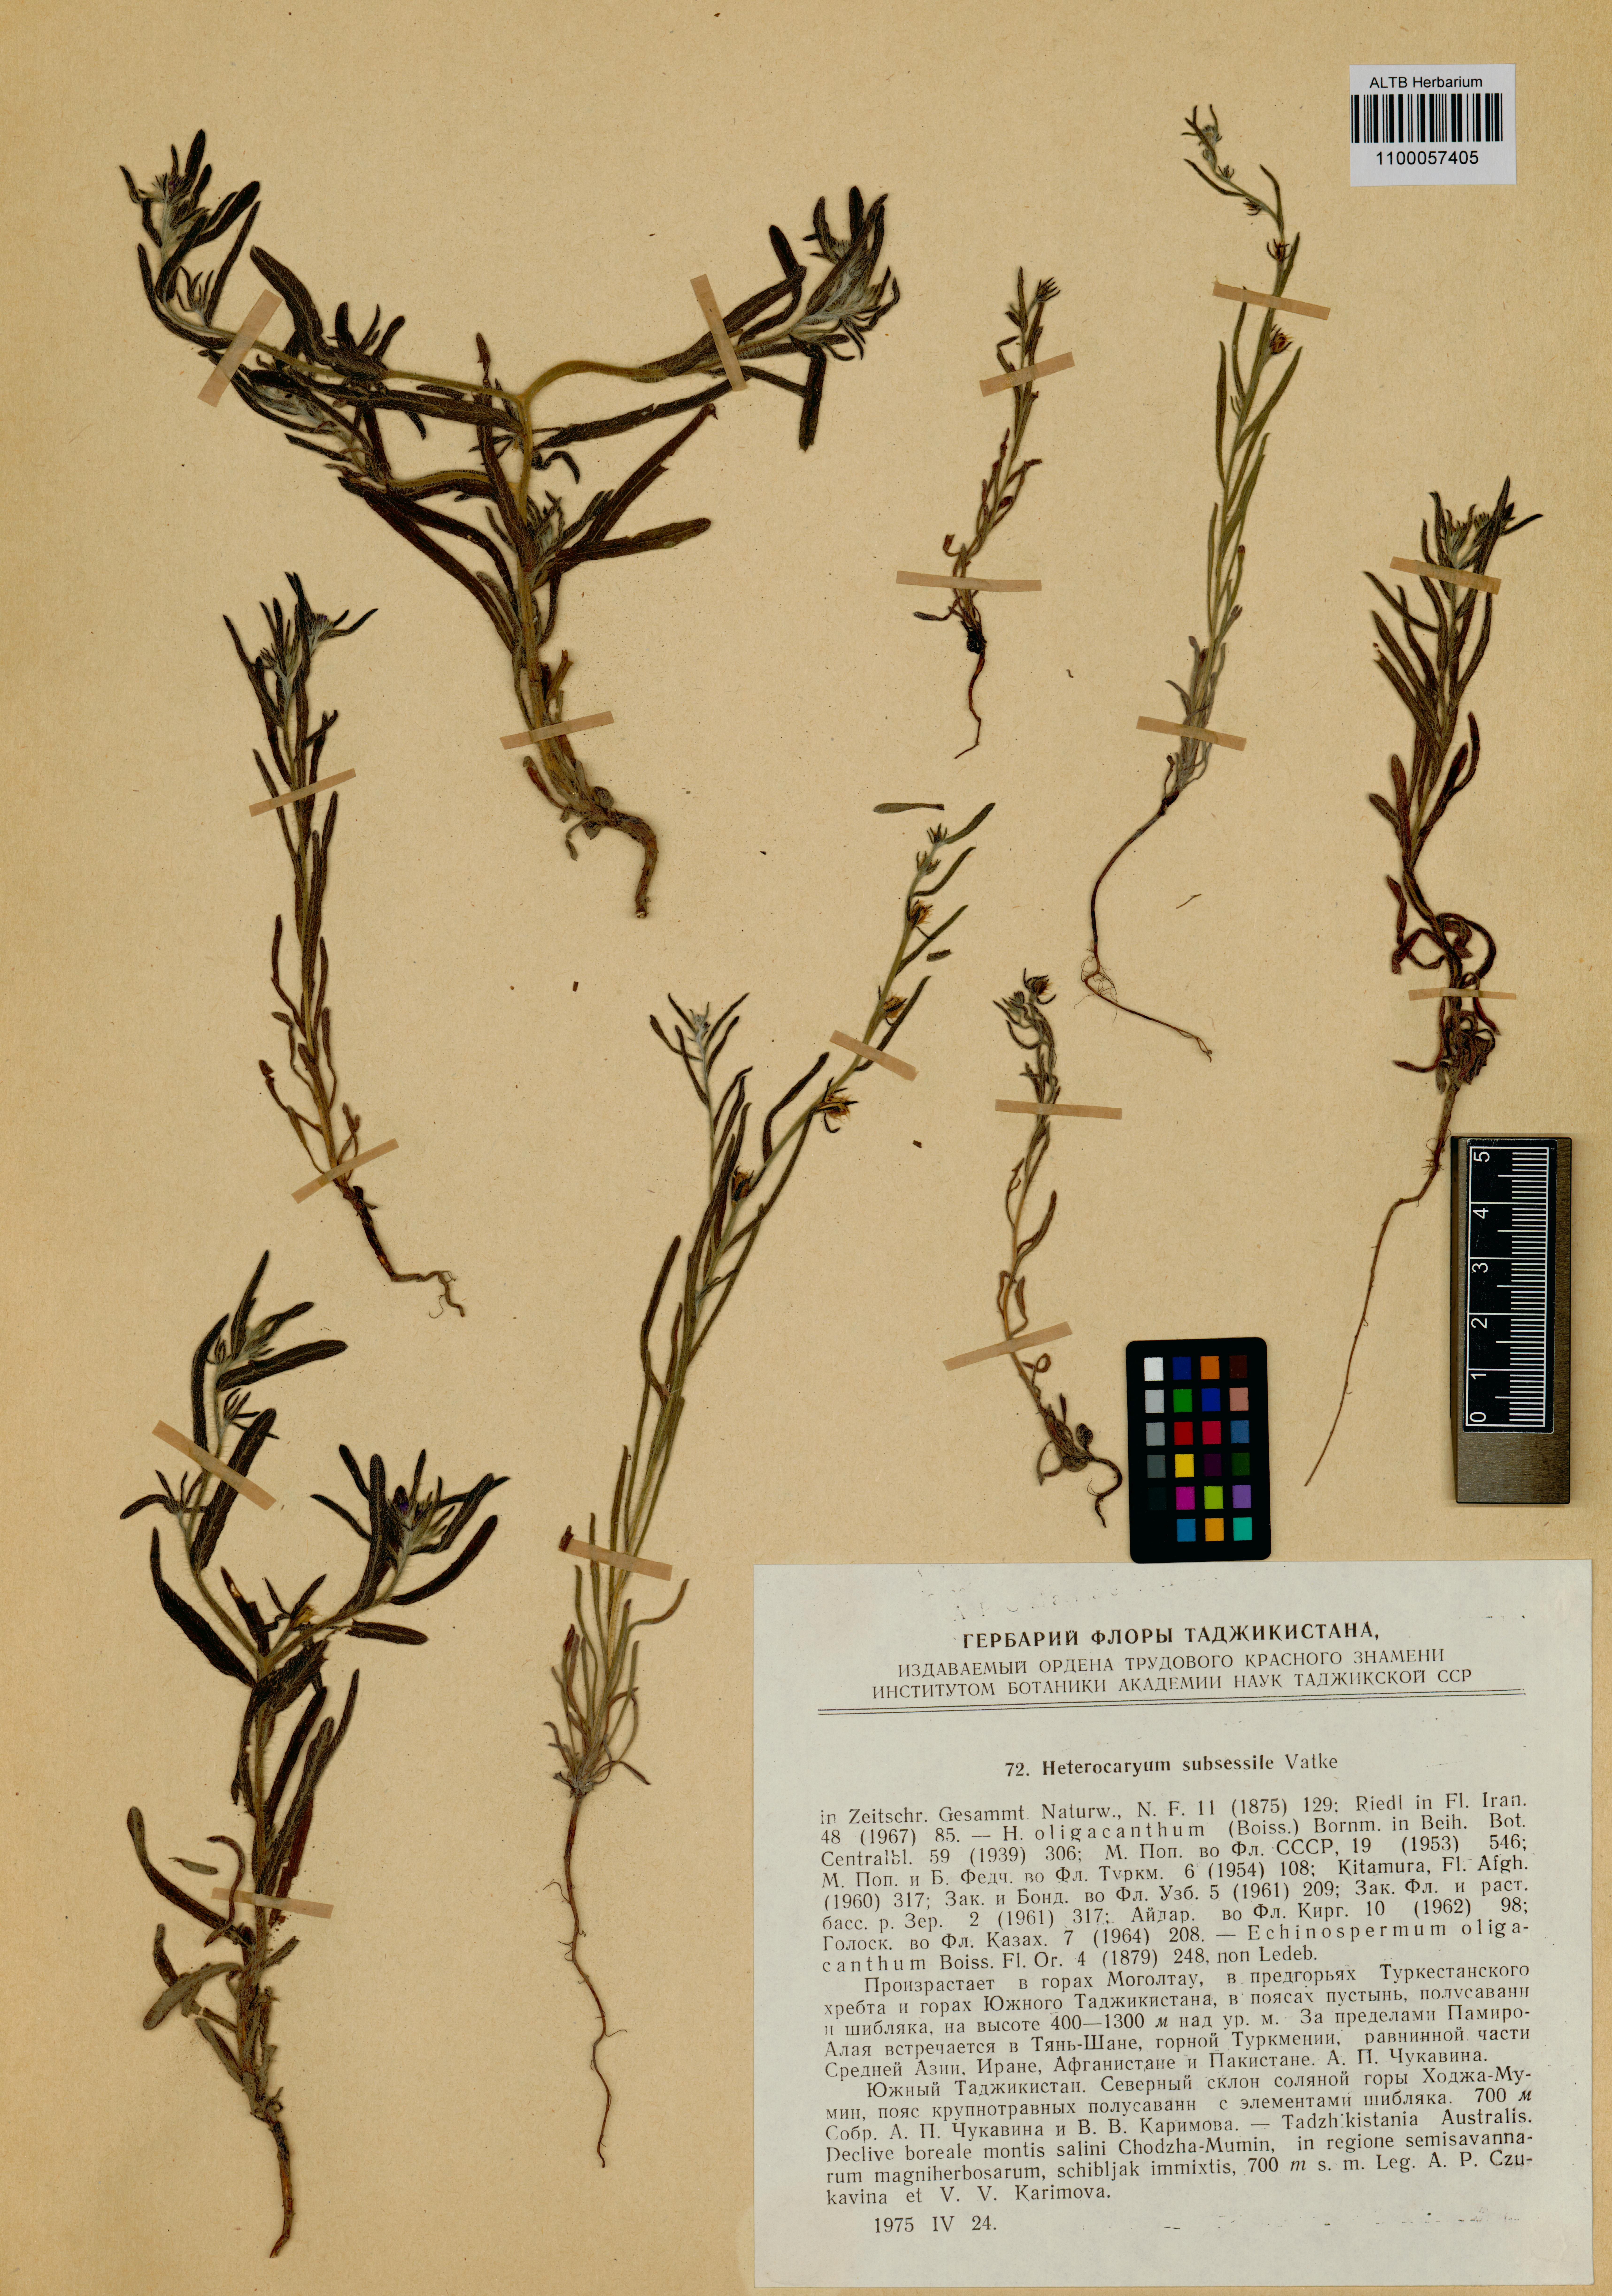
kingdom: Plantae
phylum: Tracheophyta
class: Magnoliopsida
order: Boraginales
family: Boraginaceae
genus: Pseudoheterocaryum
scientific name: Pseudoheterocaryum subsessile
